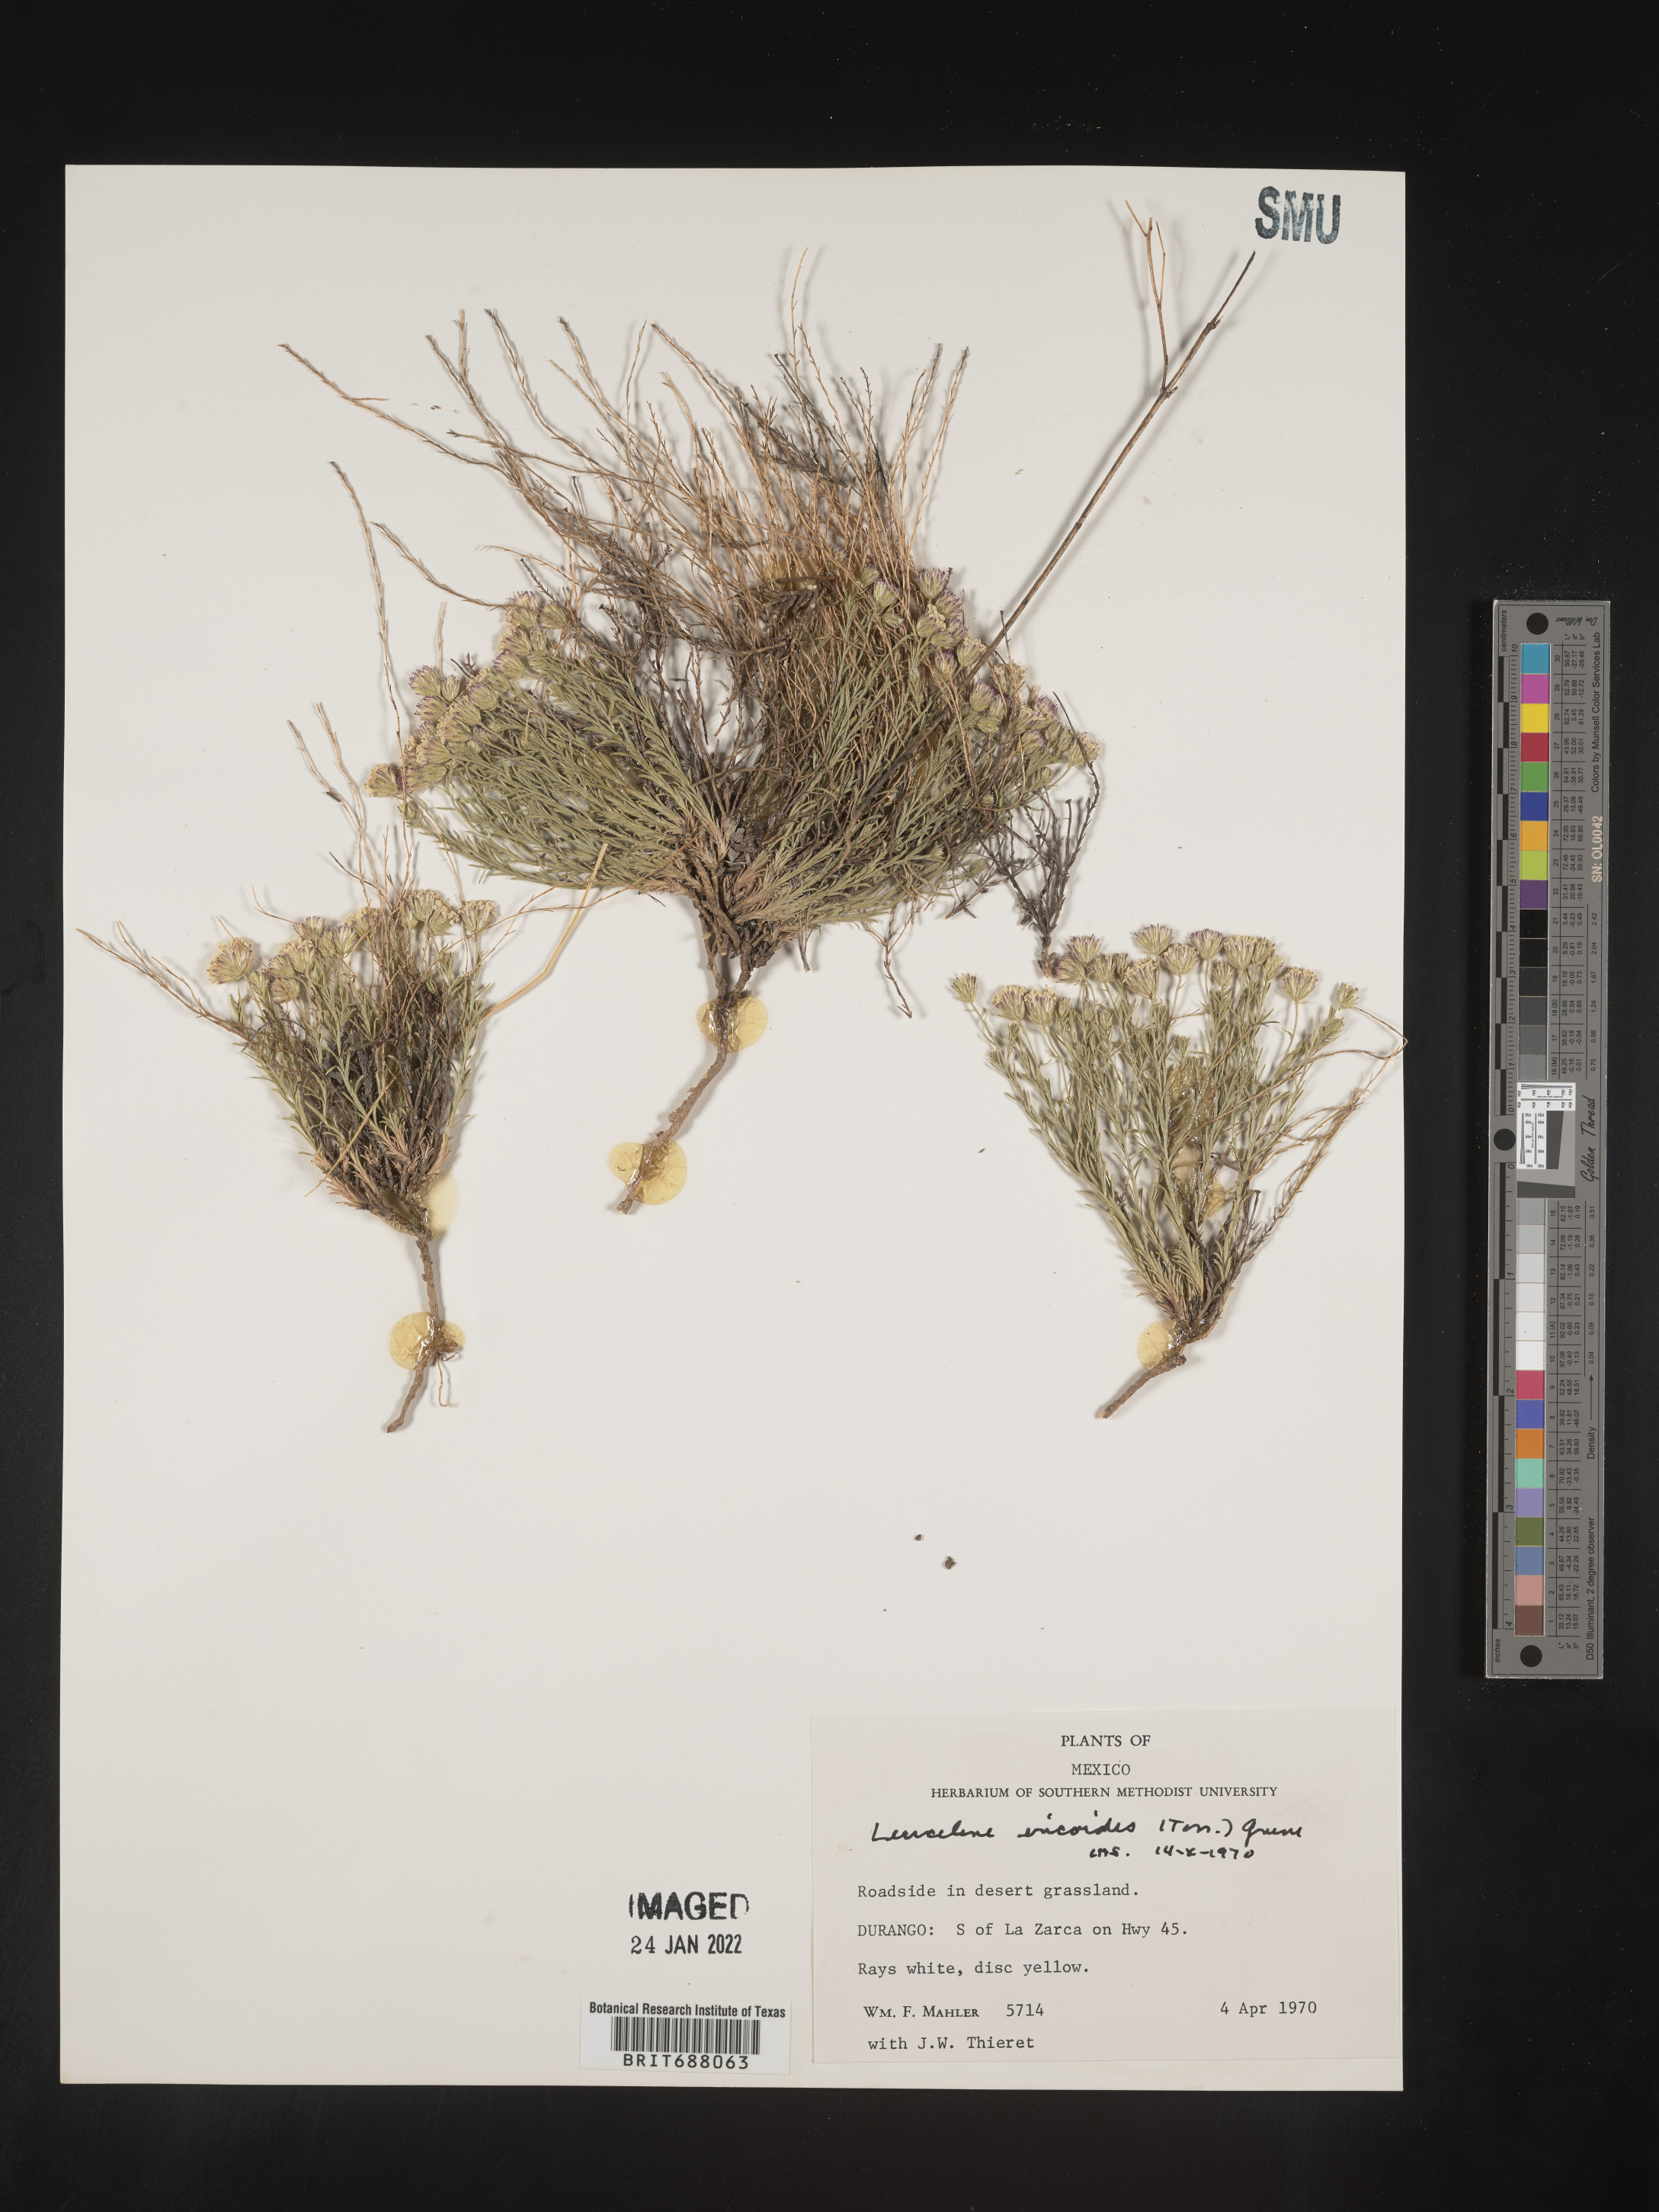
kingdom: Plantae
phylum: Tracheophyta
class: Magnoliopsida
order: Asterales
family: Asteraceae
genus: Chaetopappa
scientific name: Chaetopappa
